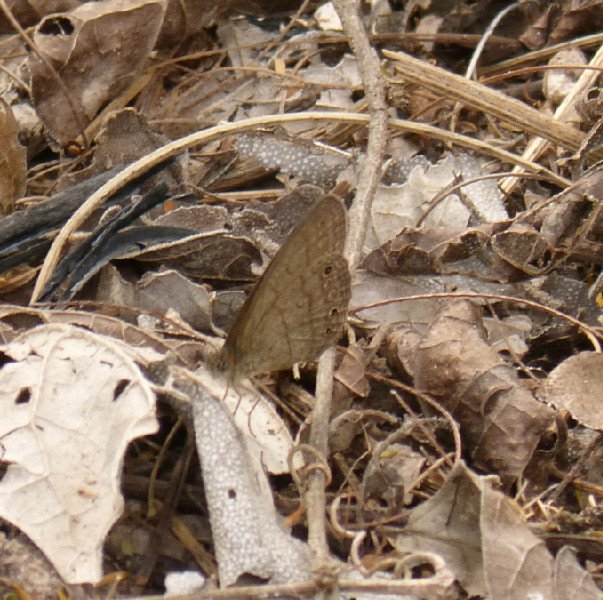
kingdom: Animalia
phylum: Arthropoda
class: Insecta
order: Lepidoptera
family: Nymphalidae
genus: Hermeuptychia
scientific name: Hermeuptychia hermybius
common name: South Texas Satyr
